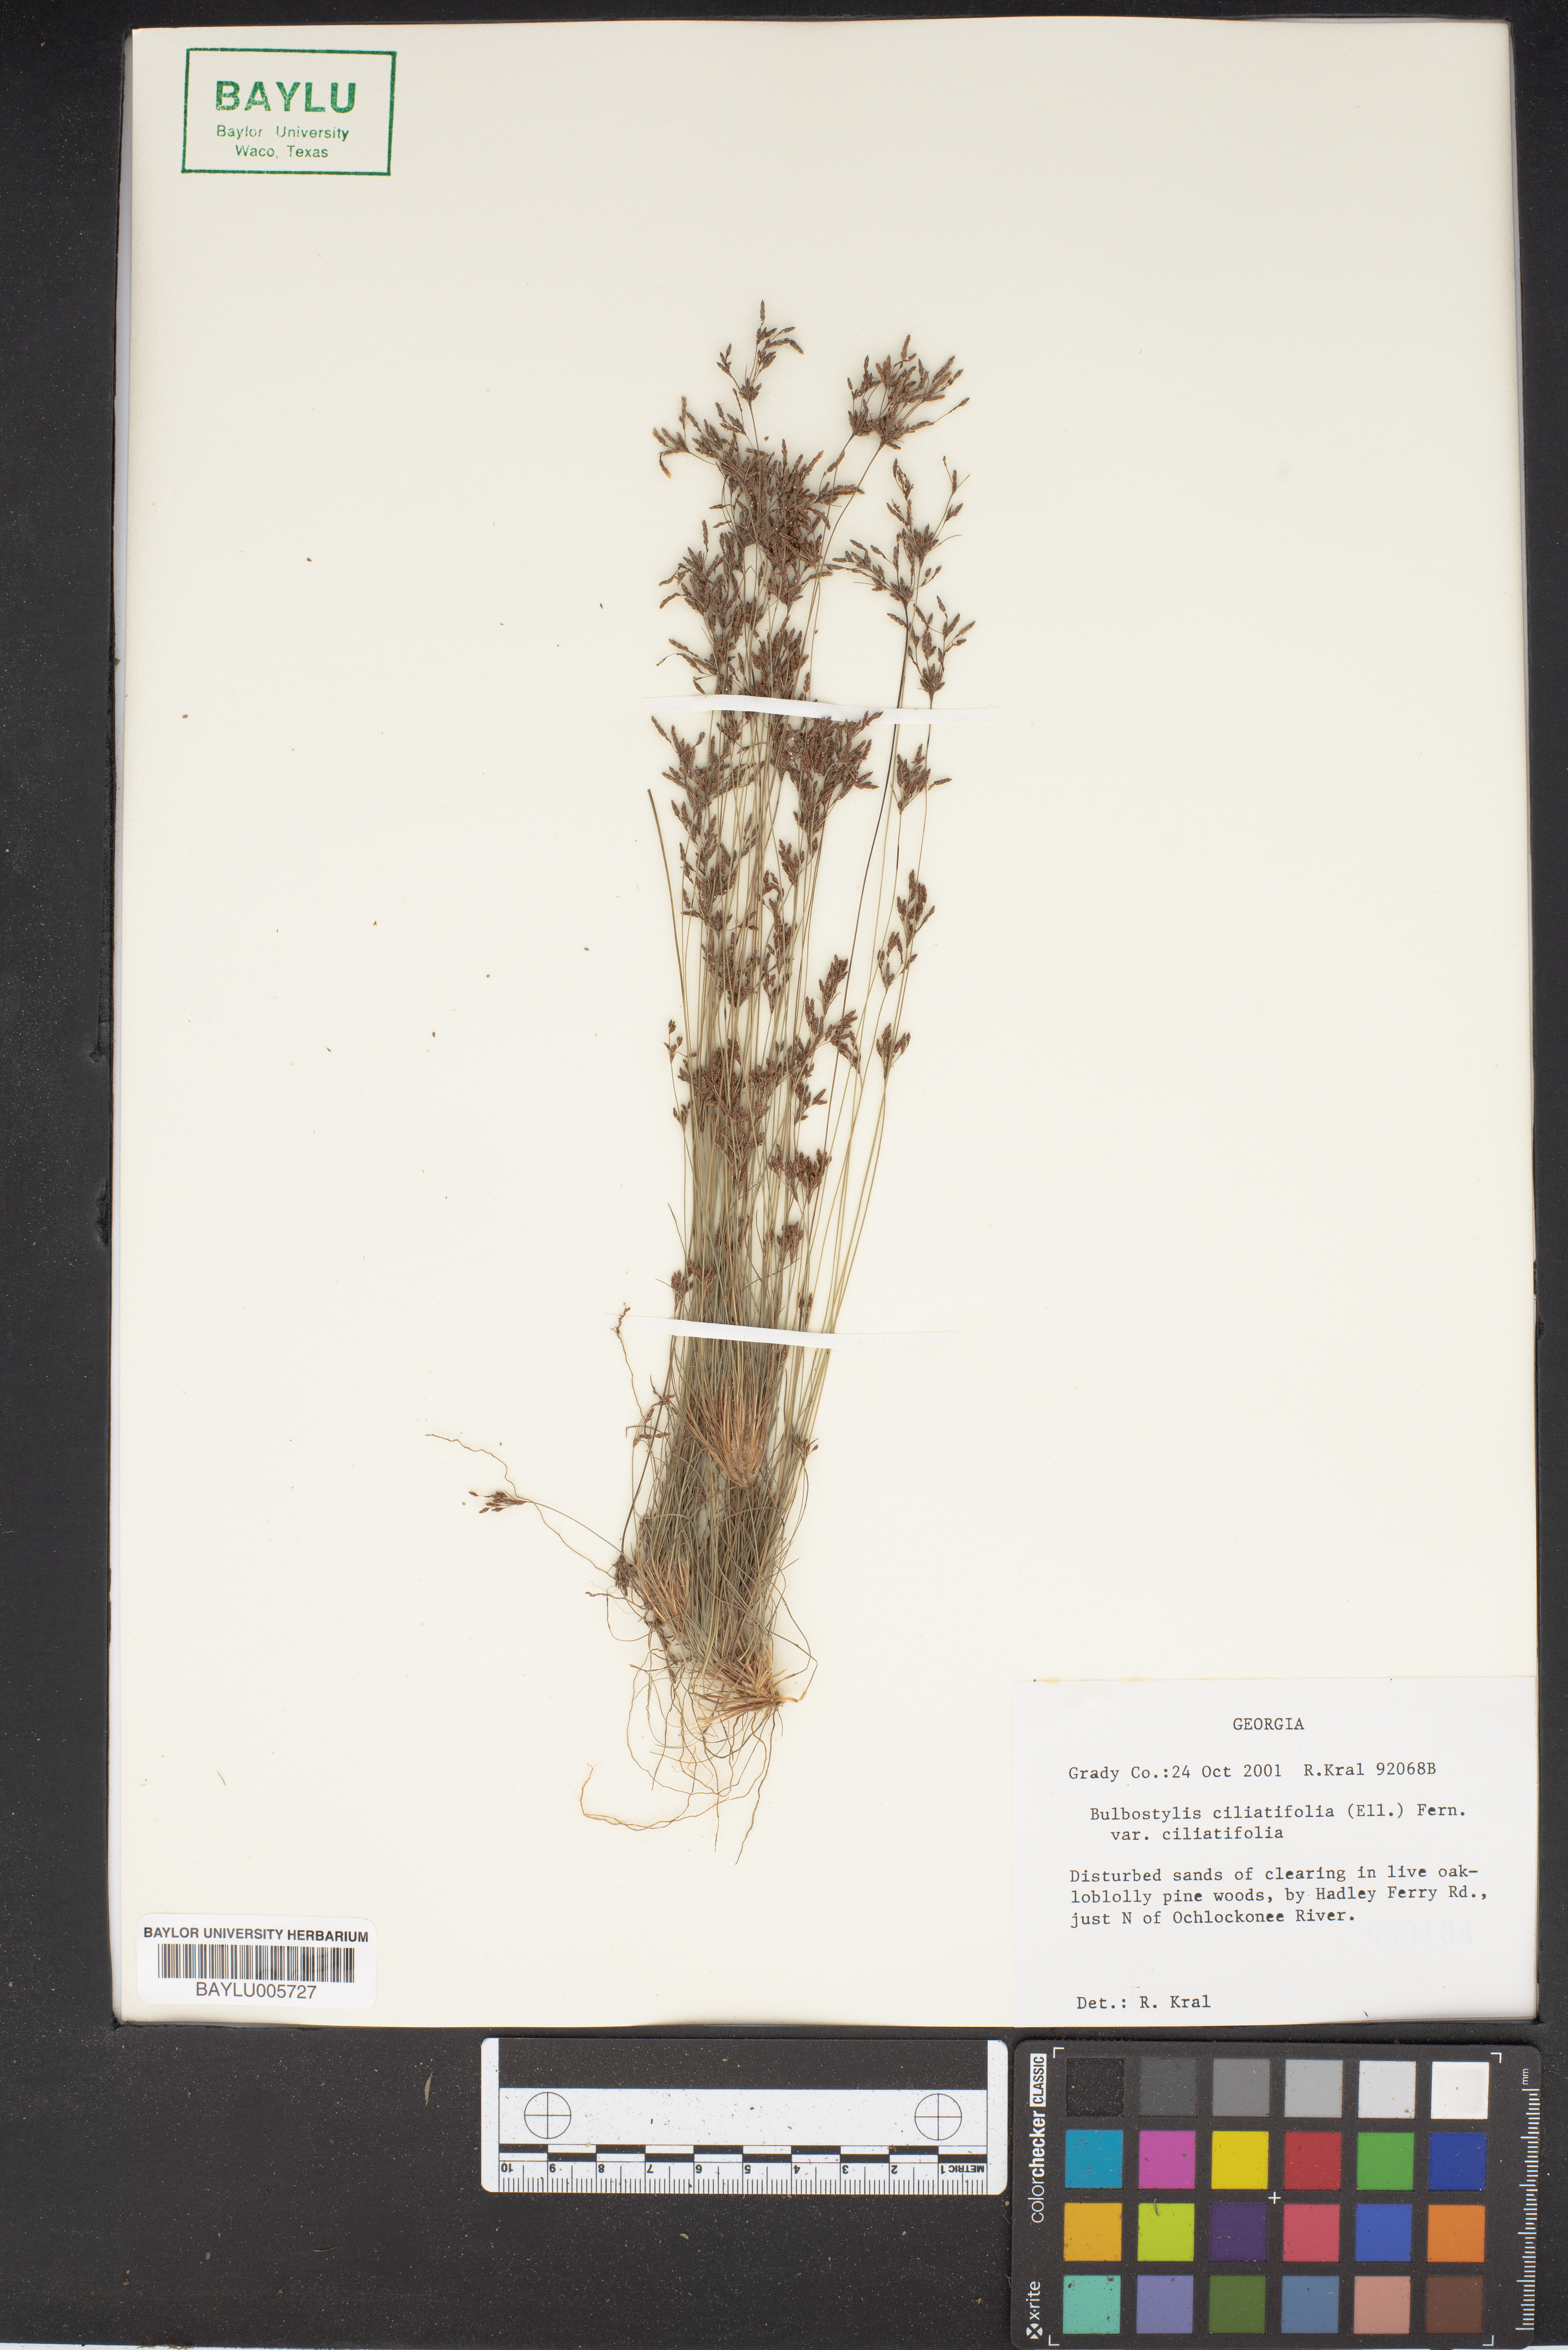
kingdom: Plantae
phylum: Tracheophyta
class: Liliopsida
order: Poales
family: Cyperaceae
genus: Bulbostylis
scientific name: Bulbostylis ciliatifolia
